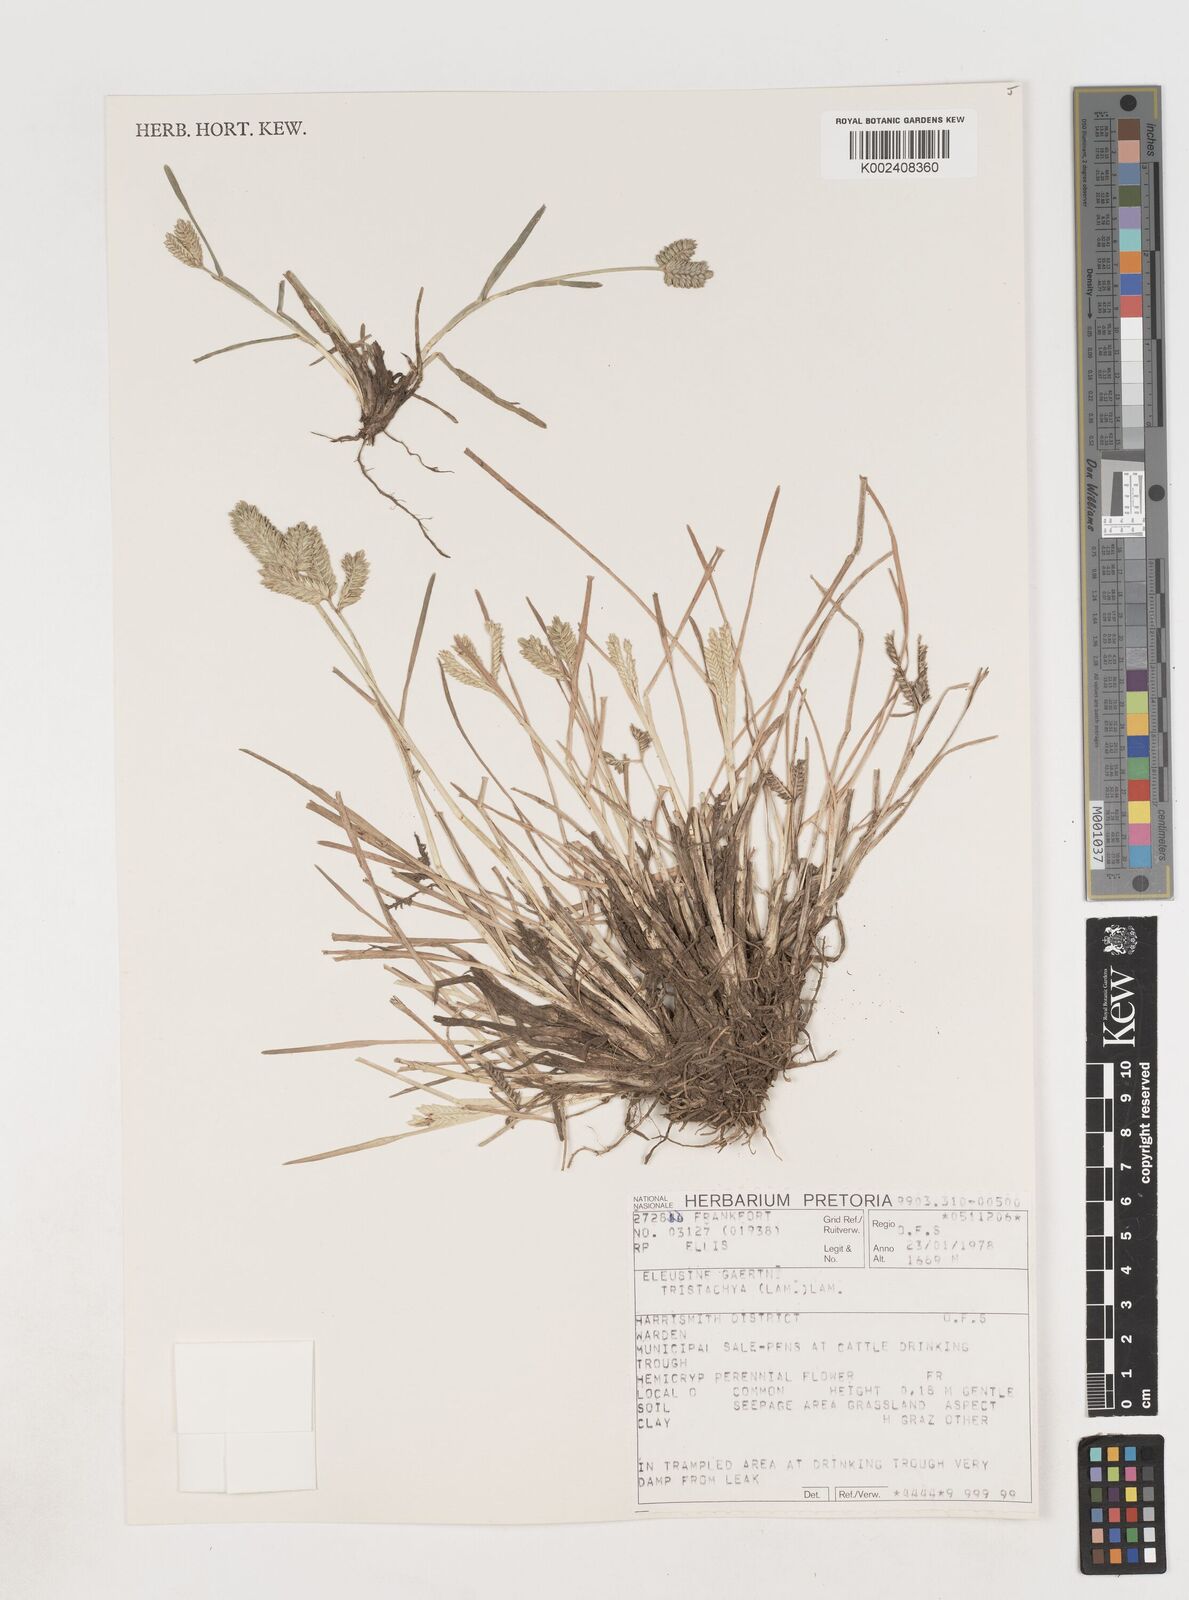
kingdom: Plantae
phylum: Tracheophyta
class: Liliopsida
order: Poales
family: Poaceae
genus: Eleusine
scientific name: Eleusine tristachya
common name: American yard-grass
